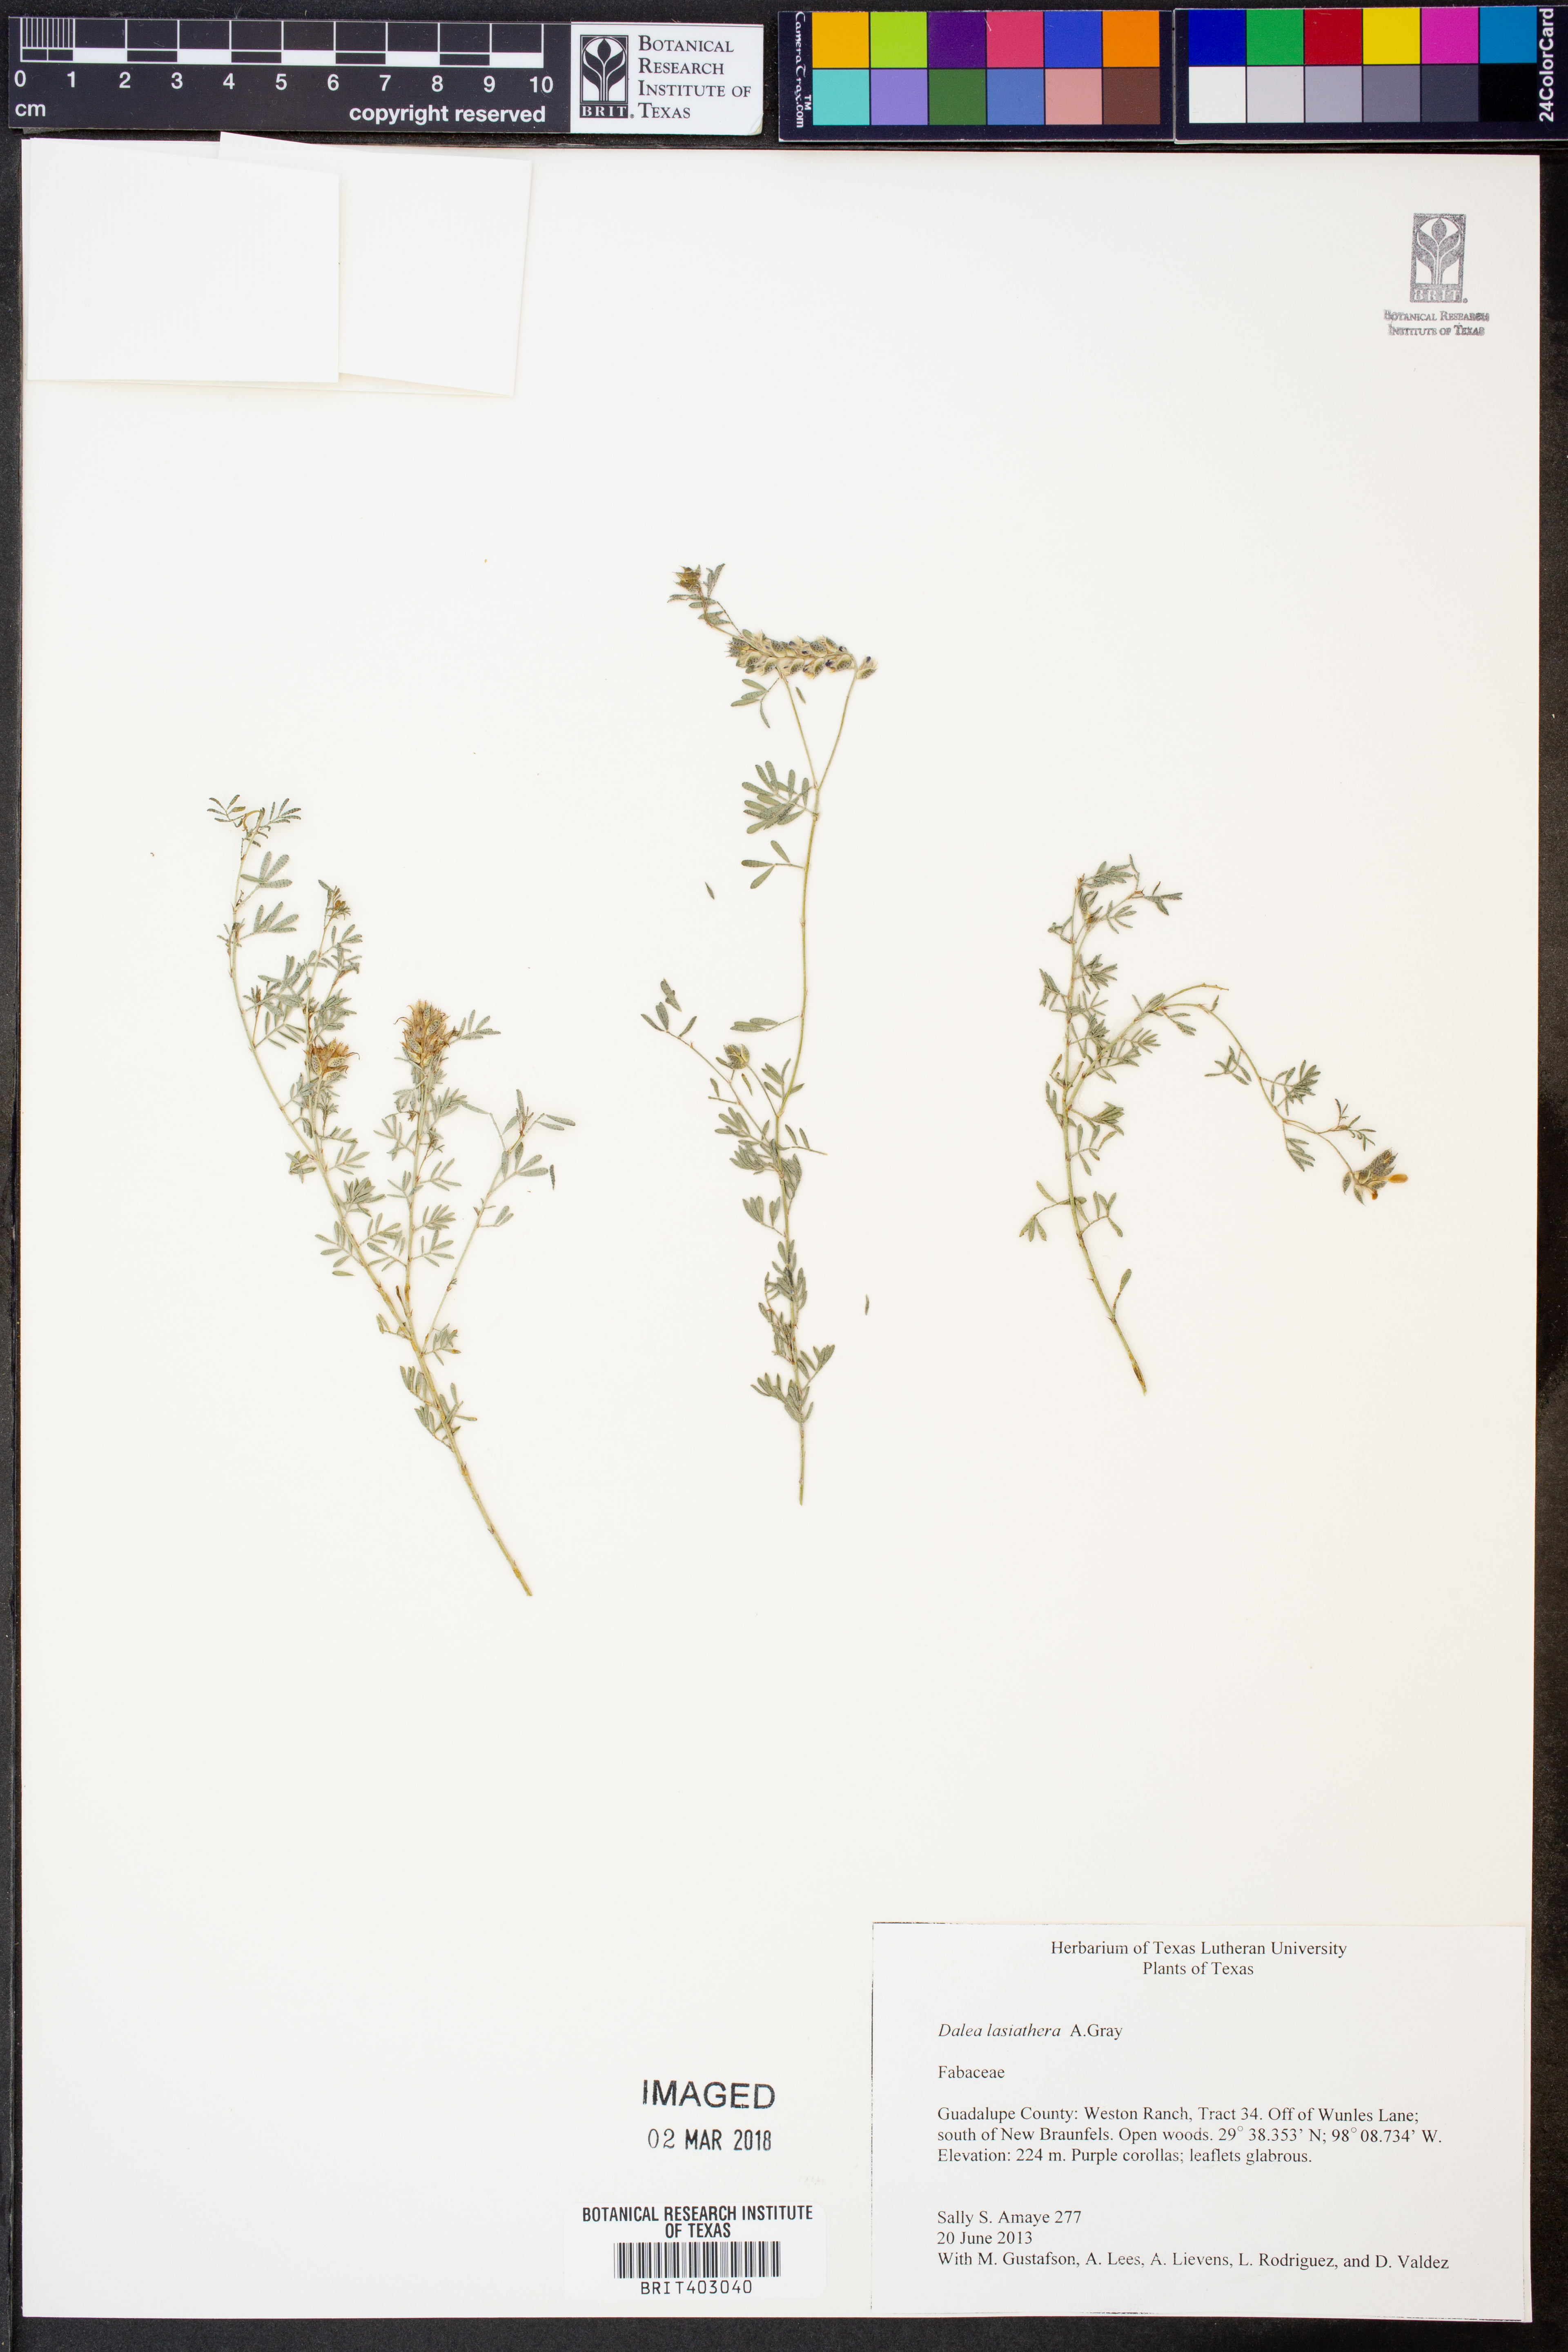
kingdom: Plantae
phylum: Tracheophyta
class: Magnoliopsida
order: Fabales
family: Fabaceae
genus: Dalea
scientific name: Dalea lasiathera
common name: Purple prairie-clover
